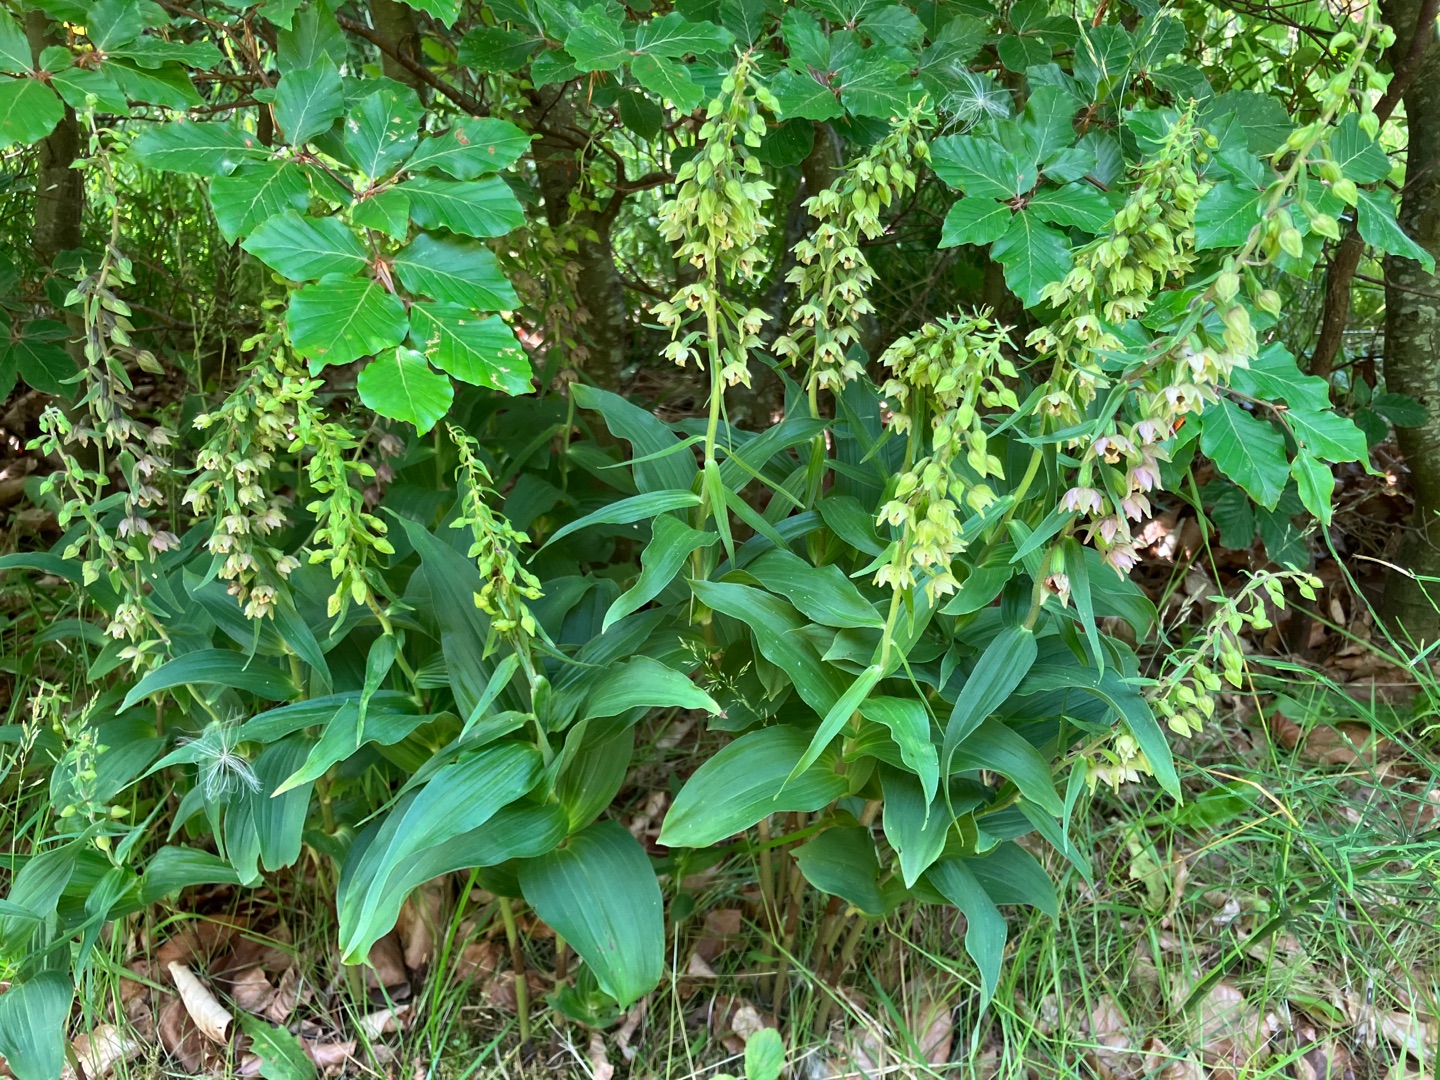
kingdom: Plantae
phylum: Tracheophyta
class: Liliopsida
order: Asparagales
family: Orchidaceae
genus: Epipactis
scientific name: Epipactis helleborine
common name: Skov-hullæbe
